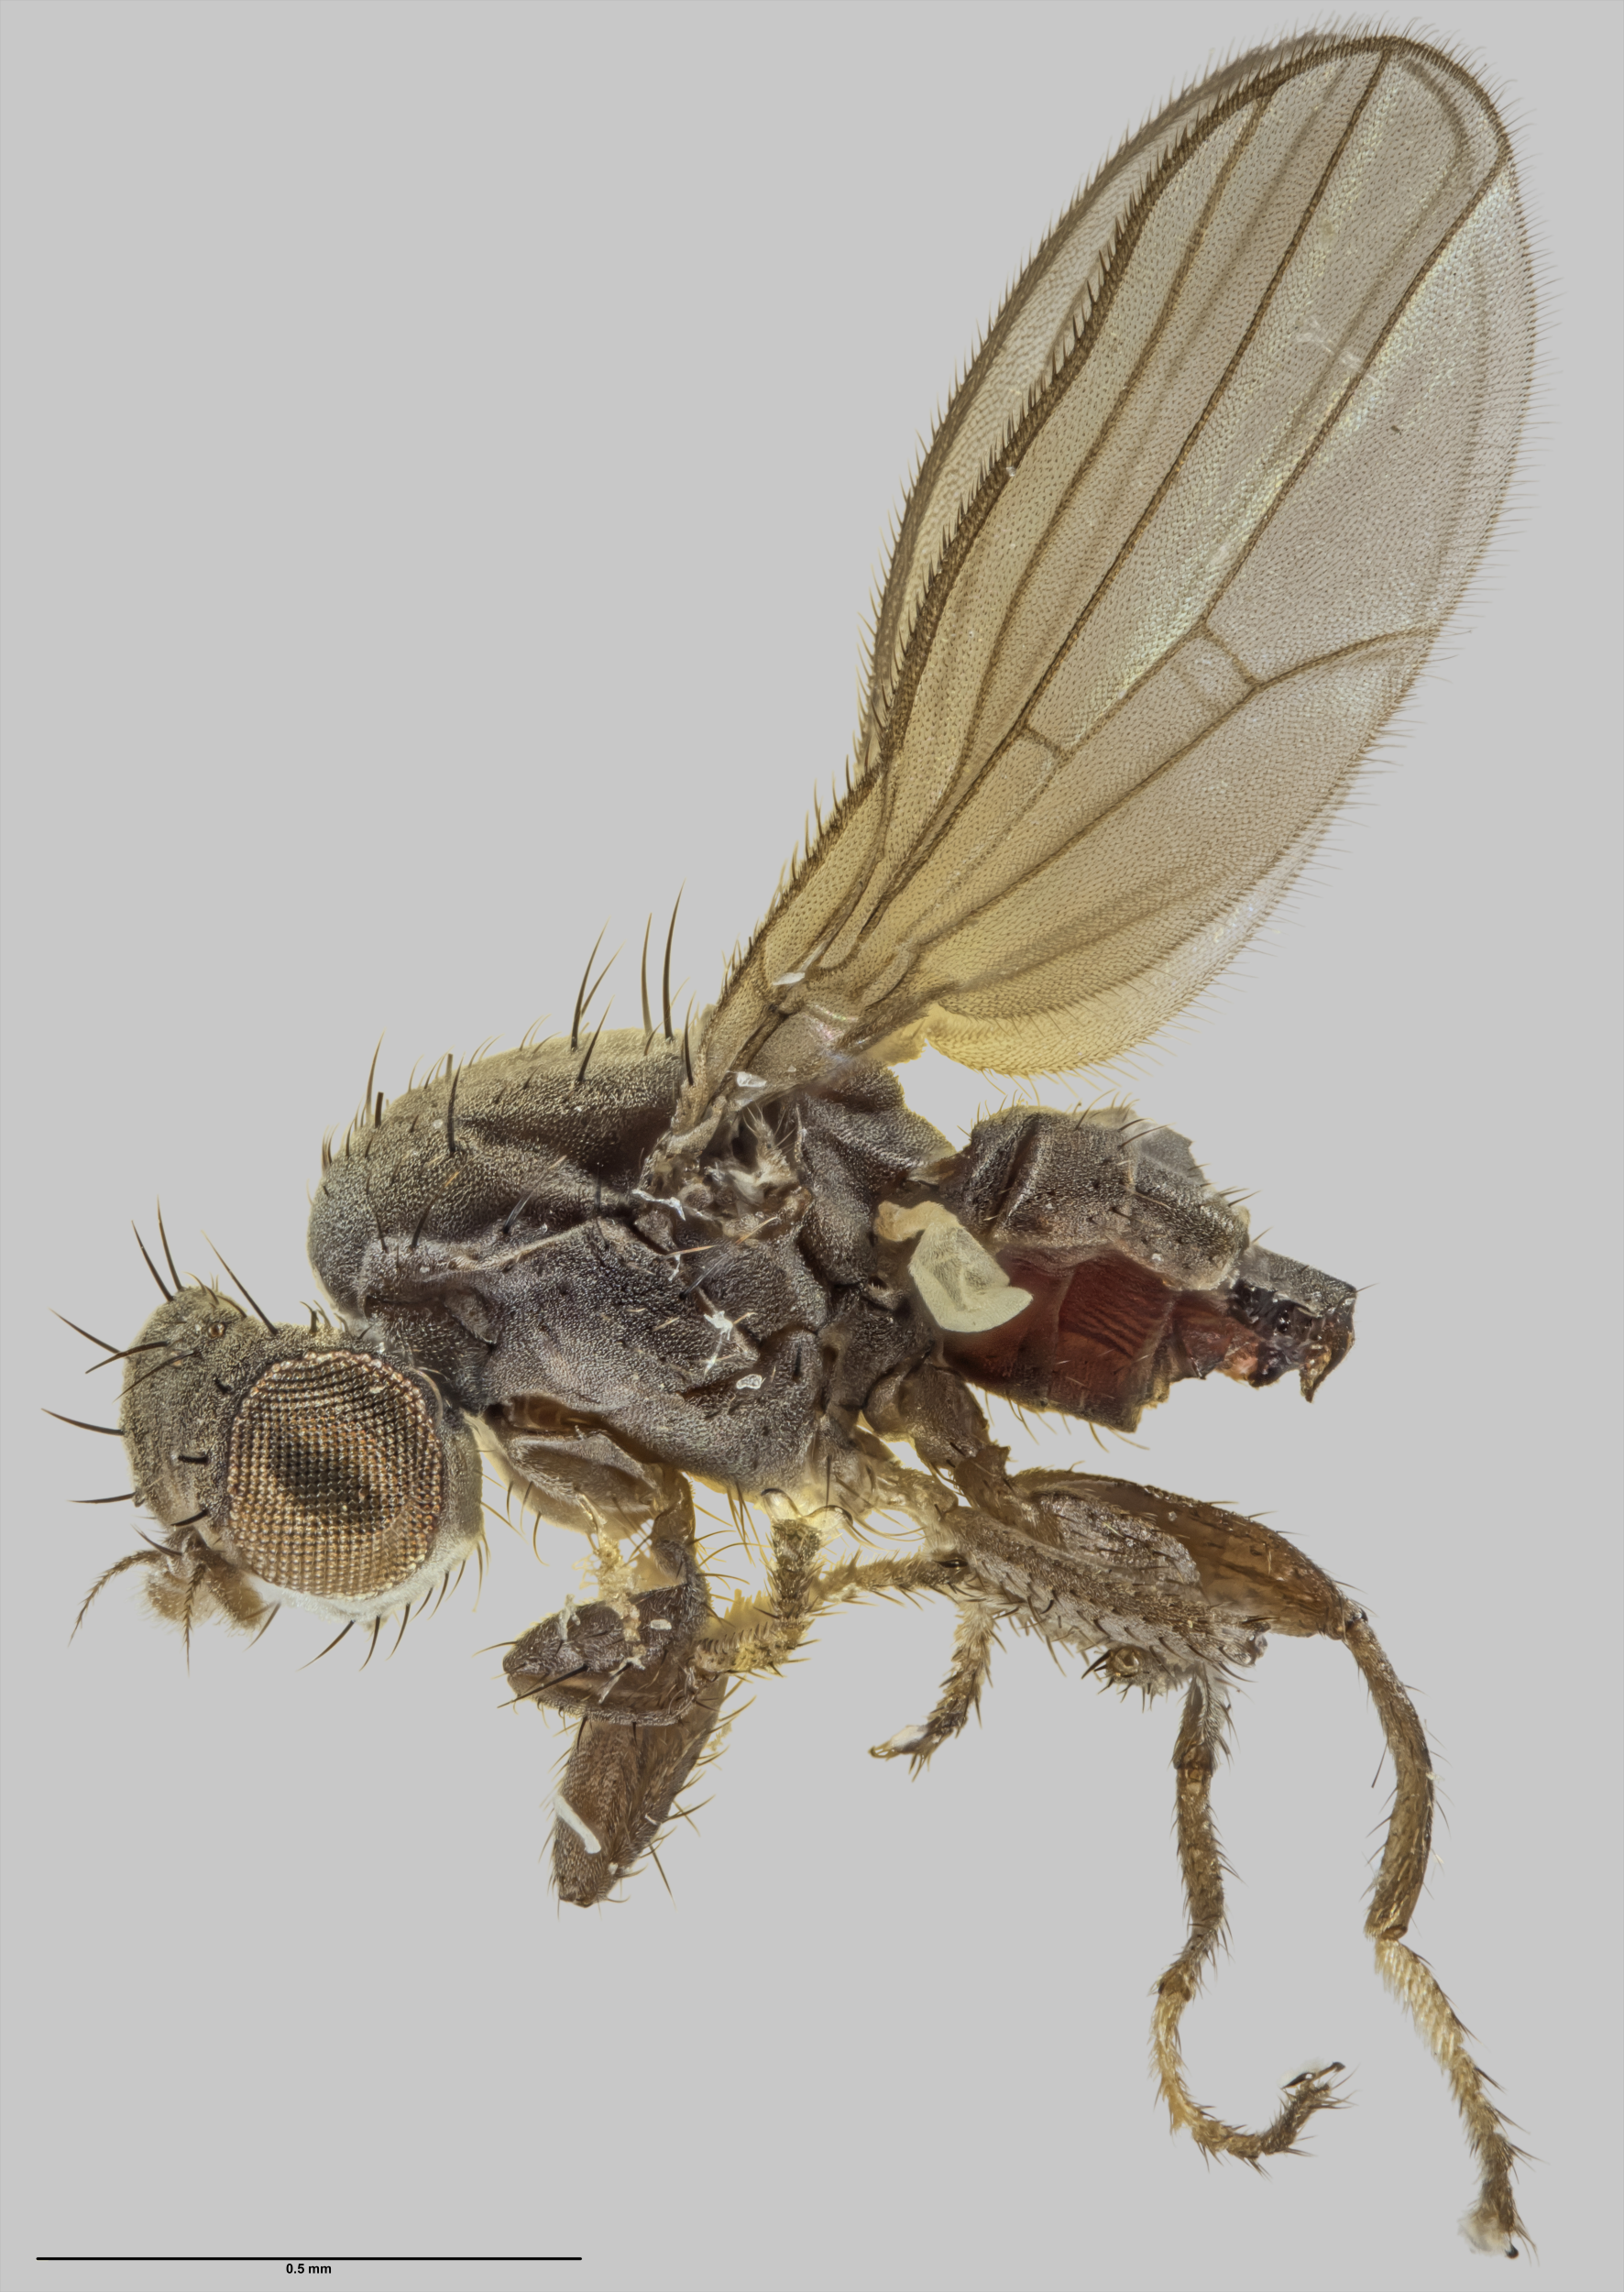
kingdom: Animalia
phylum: Arthropoda
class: Insecta
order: Diptera
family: Canacidae
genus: Zalea
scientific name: Zalea lithax
